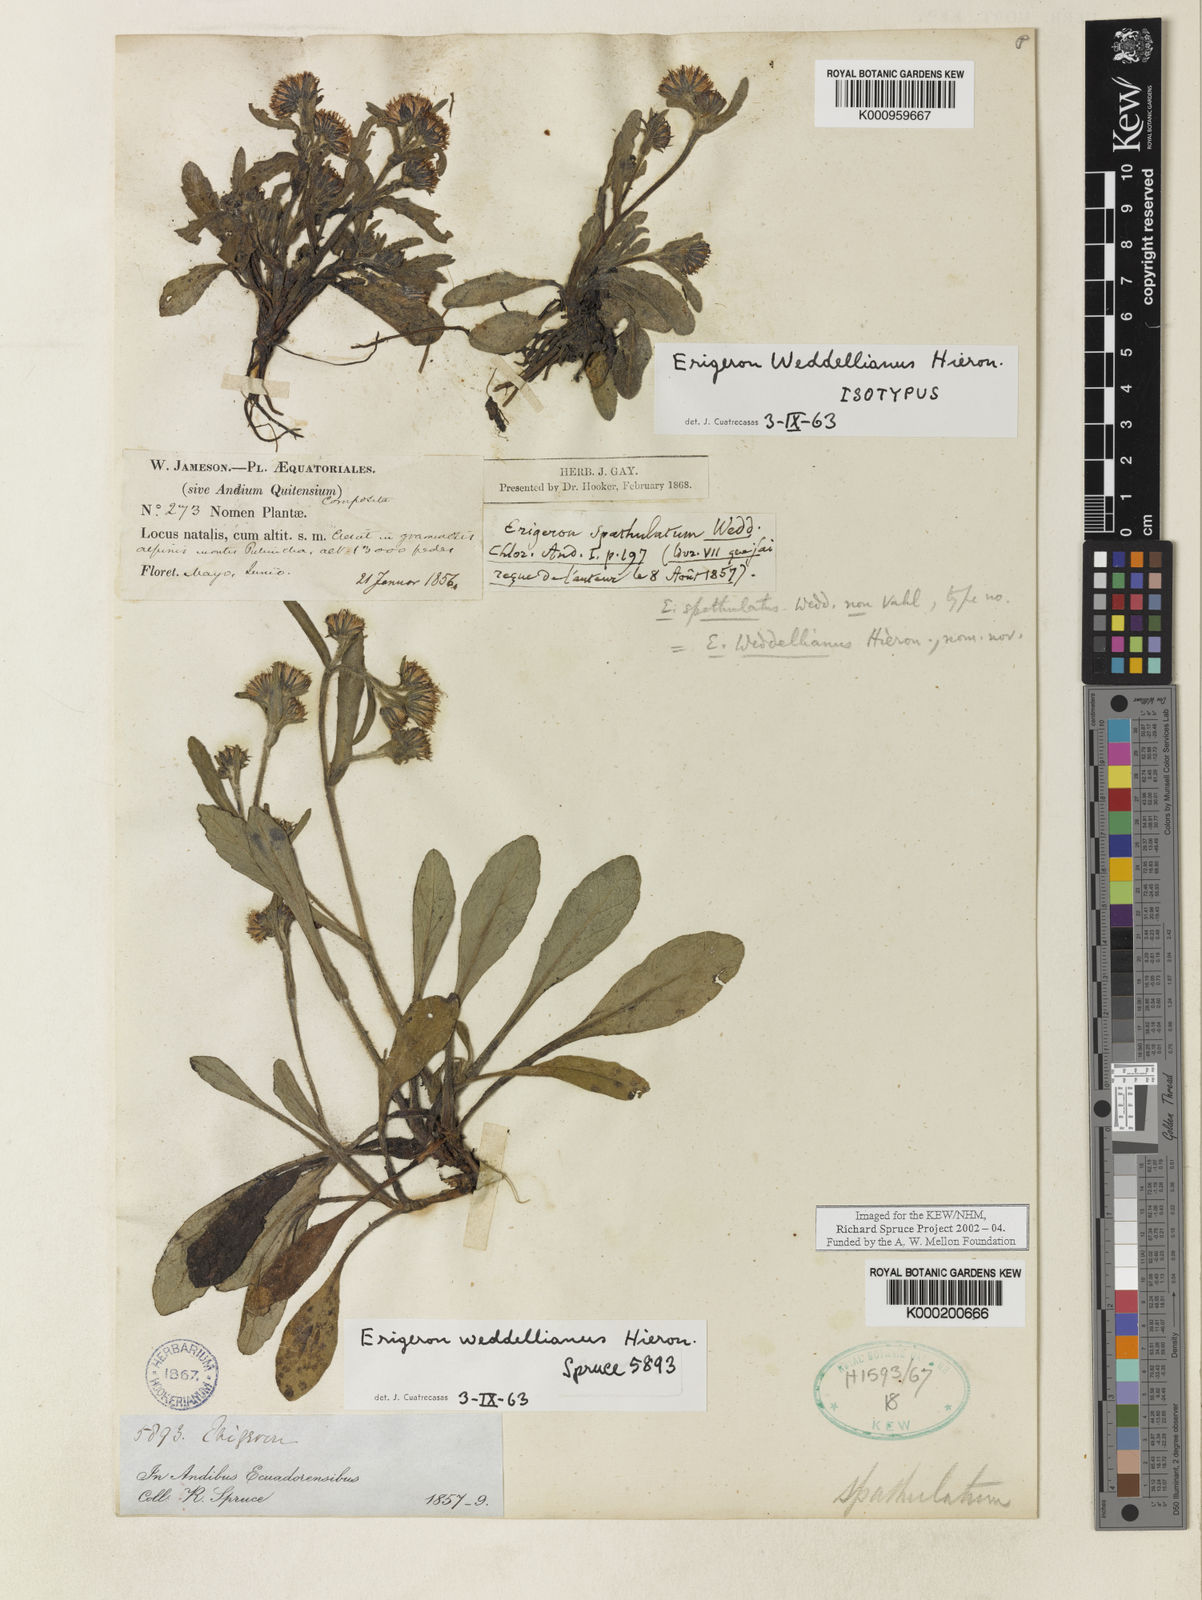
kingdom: Plantae
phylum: Tracheophyta
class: Magnoliopsida
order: Asterales
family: Asteraceae
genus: Erigeron
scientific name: Erigeron ecuadoriensis
